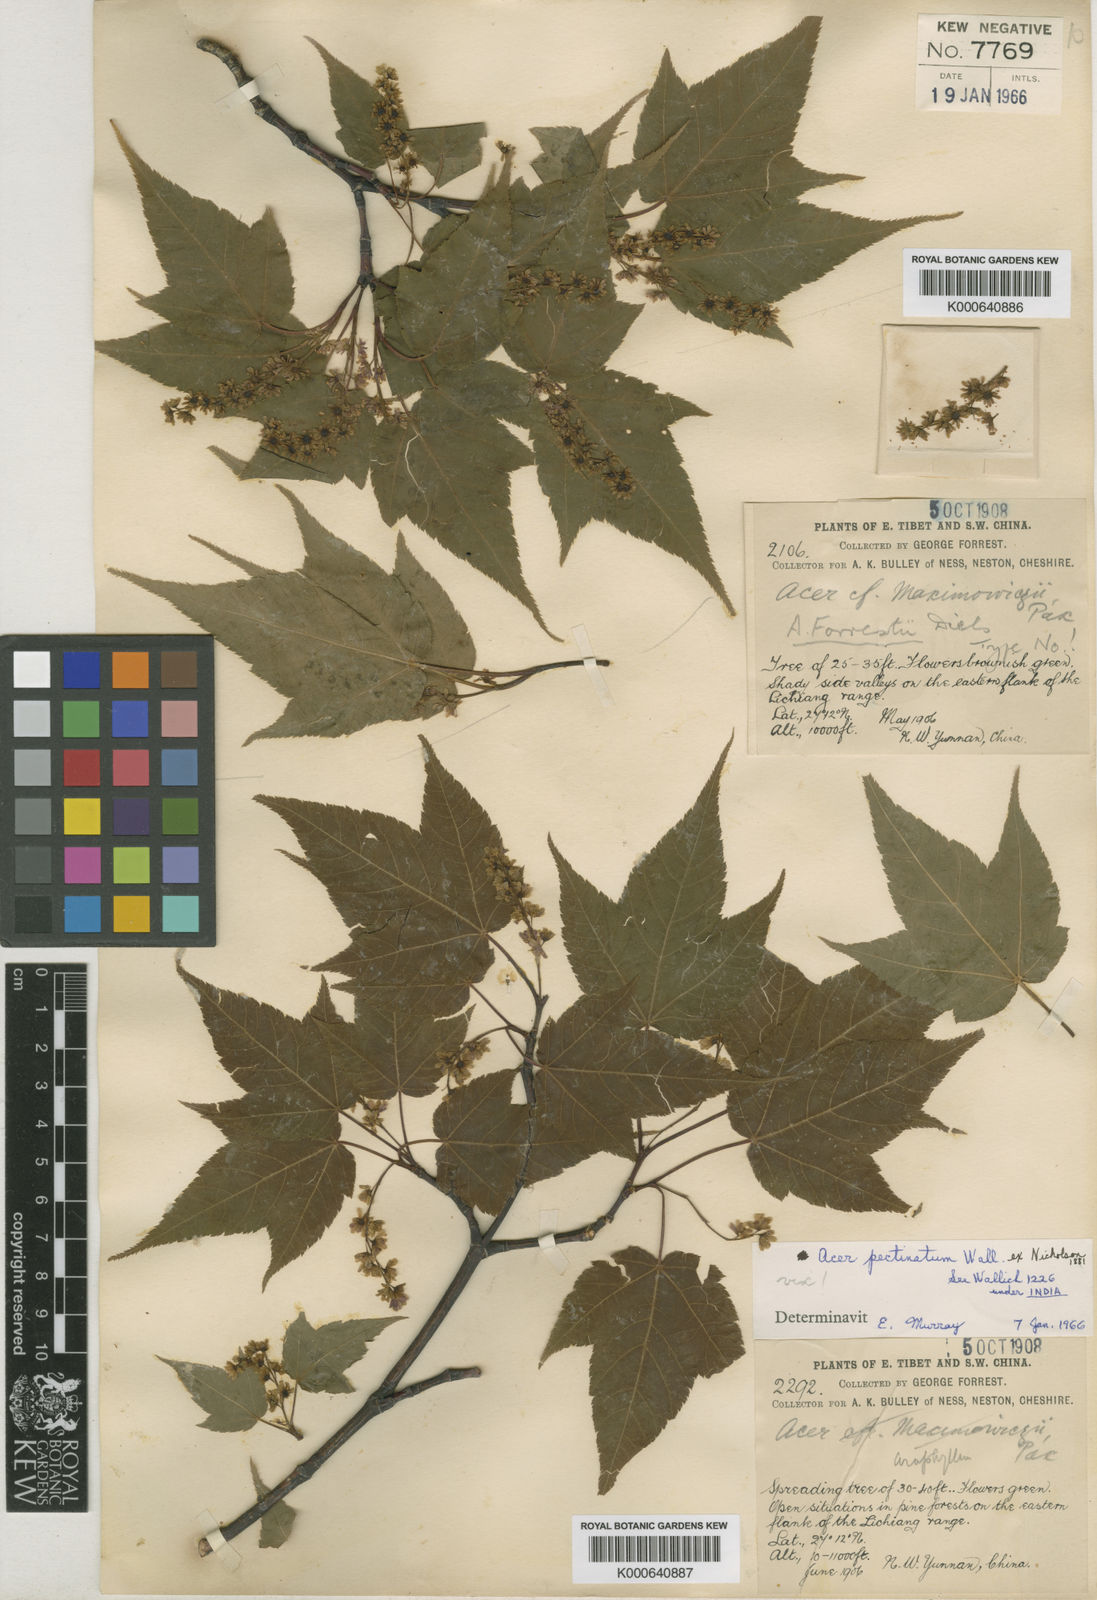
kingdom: Plantae
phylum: Tracheophyta
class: Magnoliopsida
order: Sapindales
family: Sapindaceae
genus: Acer
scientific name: Acer forrestii
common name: Forrest's maple
